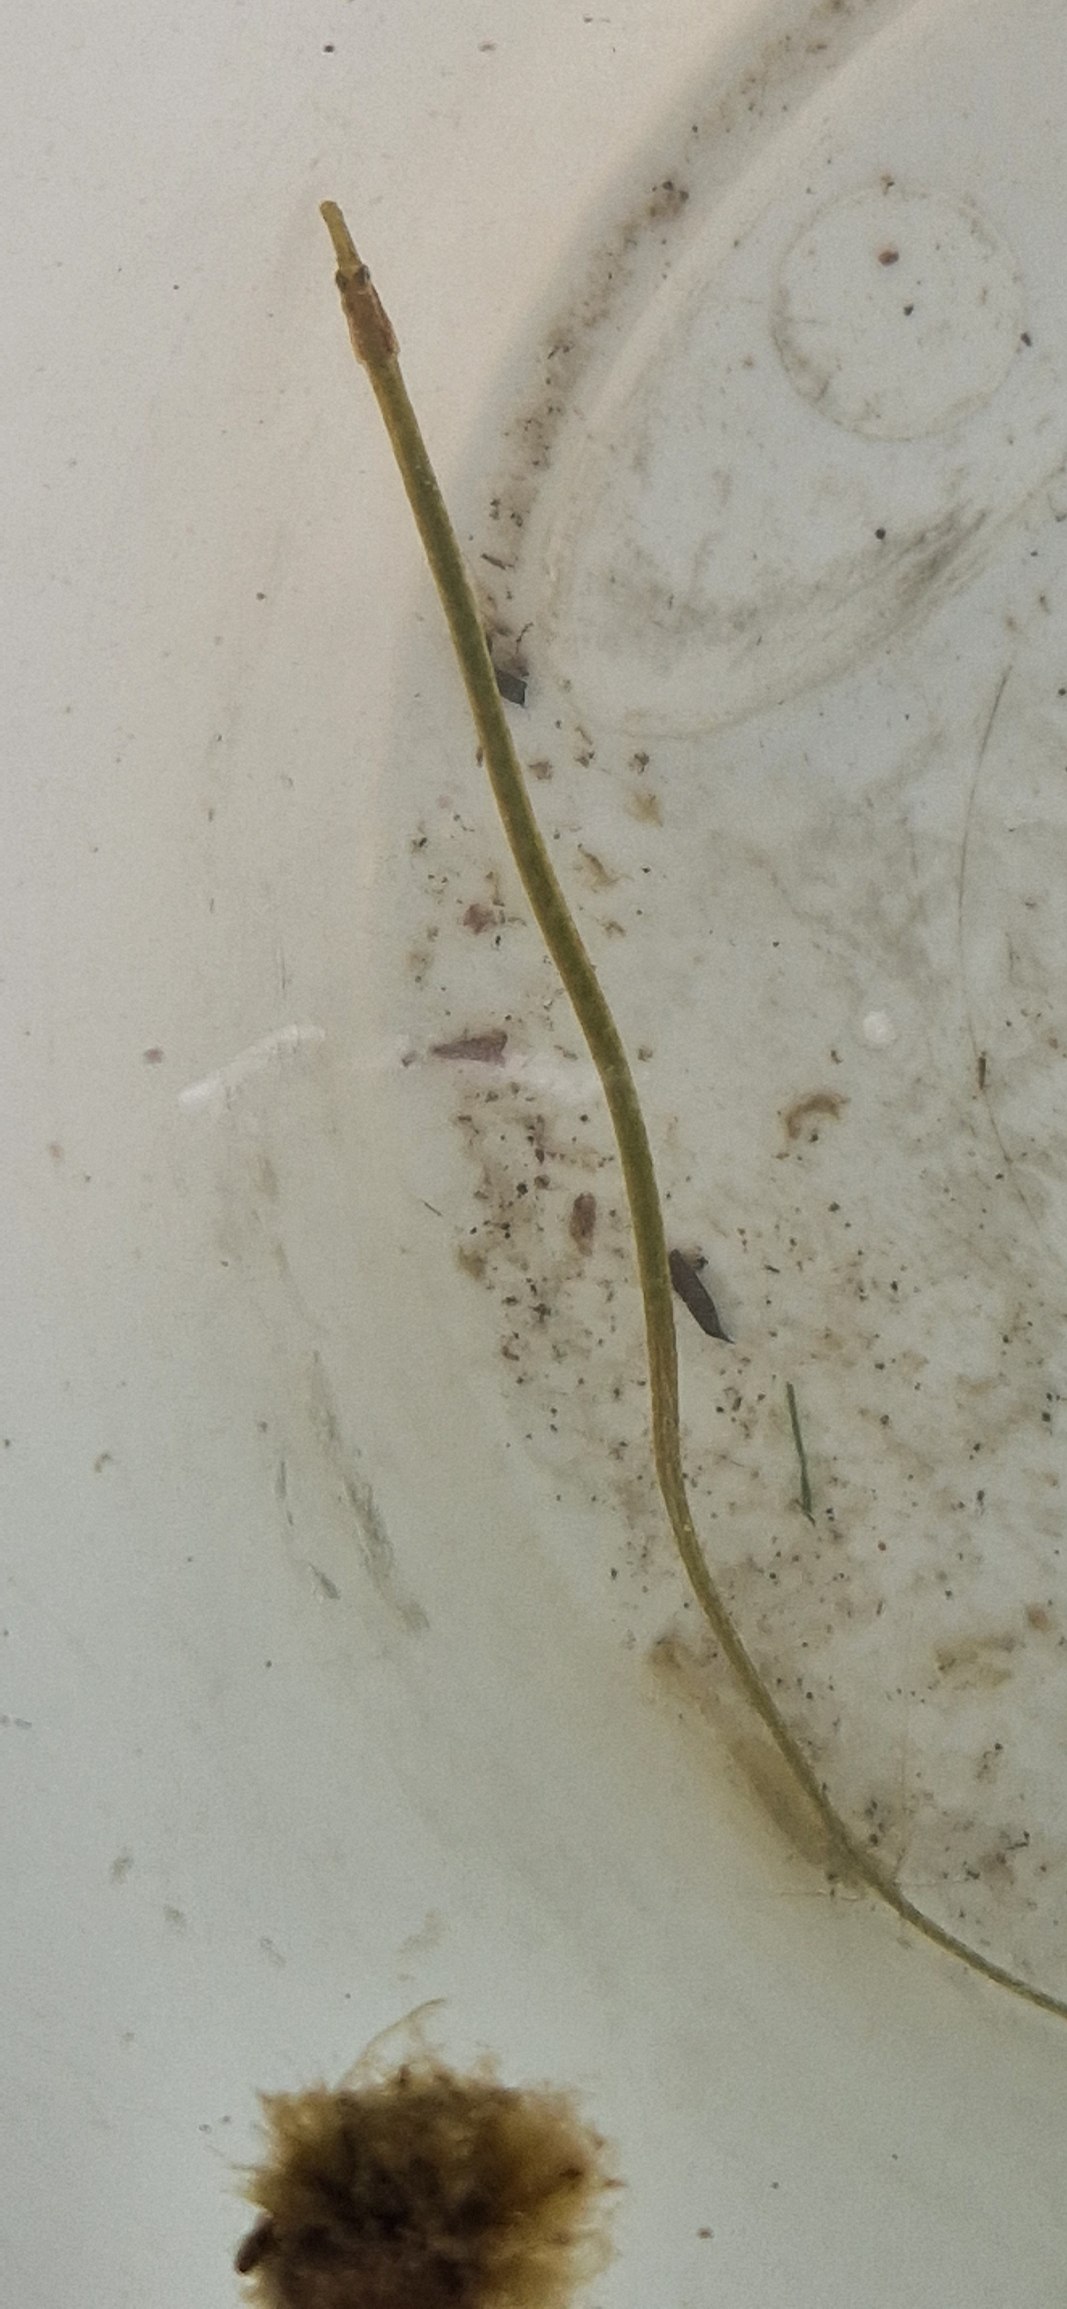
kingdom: Animalia
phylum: Chordata
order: Syngnathiformes
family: Syngnathidae
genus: Nerophis
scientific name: Nerophis ophidion
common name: Stor næbsnog
